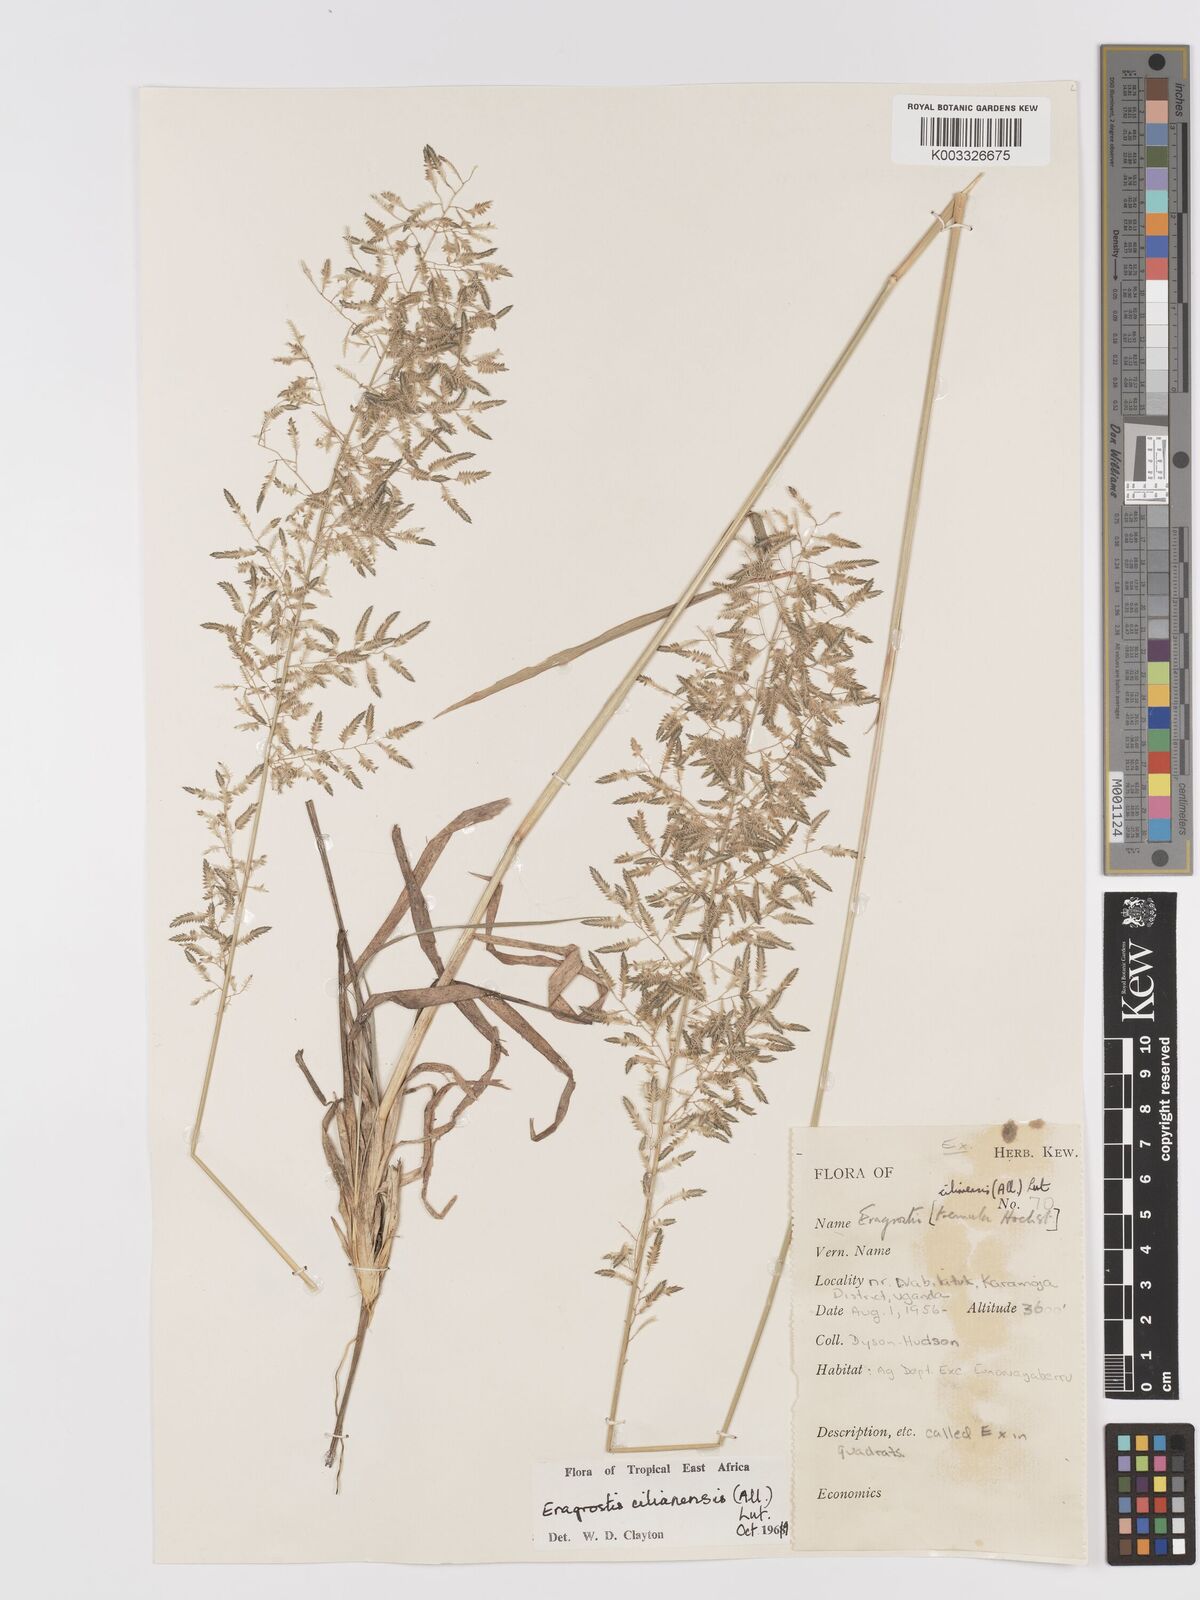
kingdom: Plantae
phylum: Tracheophyta
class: Liliopsida
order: Poales
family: Poaceae
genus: Eragrostis
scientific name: Eragrostis cilianensis
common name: Stinkgrass
